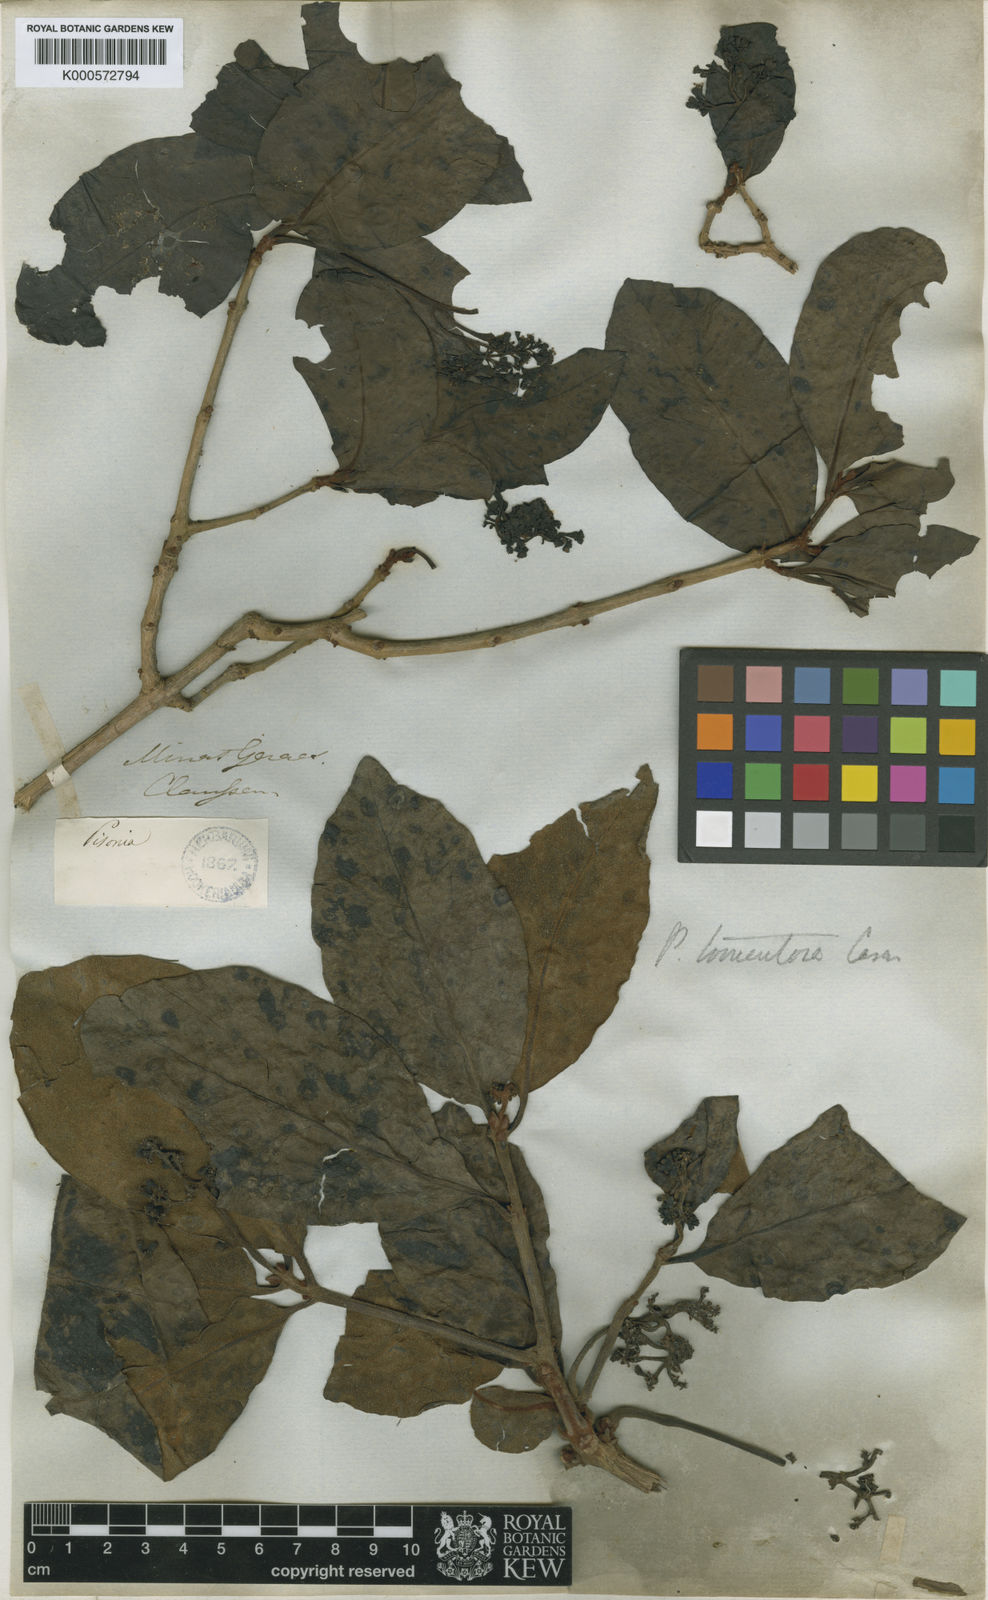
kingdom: Plantae
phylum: Tracheophyta
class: Magnoliopsida
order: Caryophyllales
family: Nyctaginaceae
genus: Guapira
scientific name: Guapira noxia
